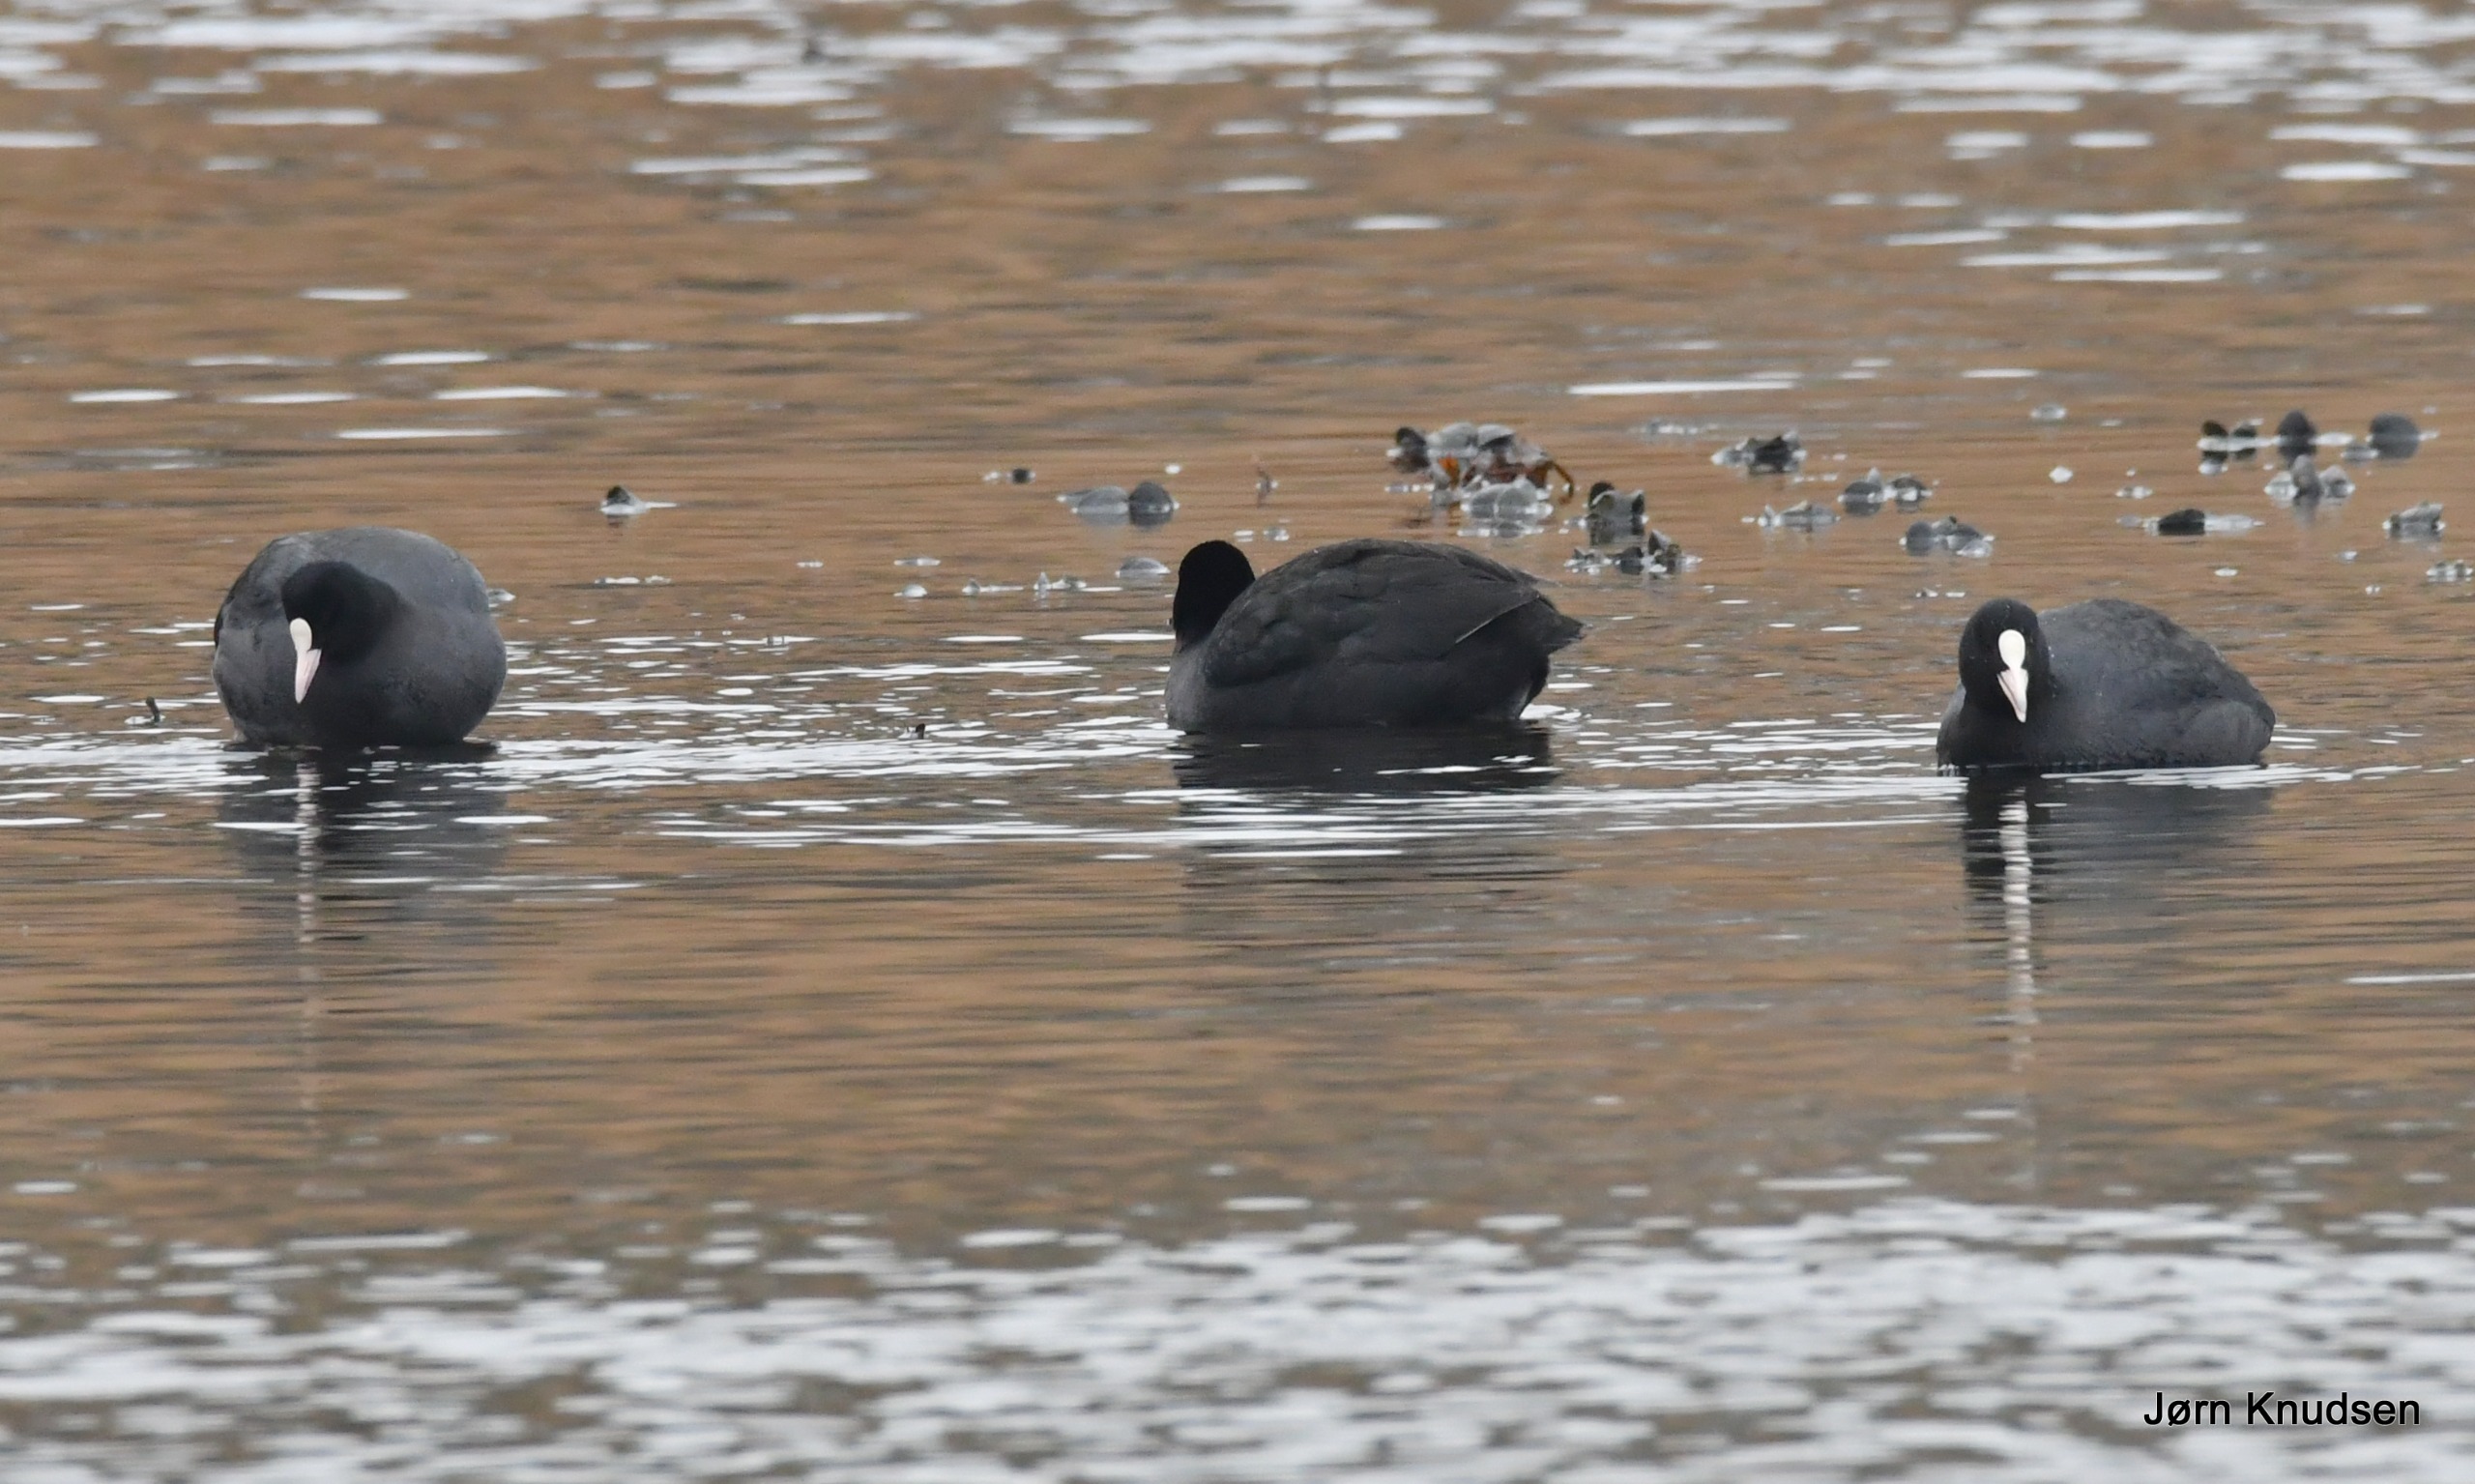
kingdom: Animalia
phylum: Chordata
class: Aves
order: Gruiformes
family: Rallidae
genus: Fulica
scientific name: Fulica atra
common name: Blishøne
